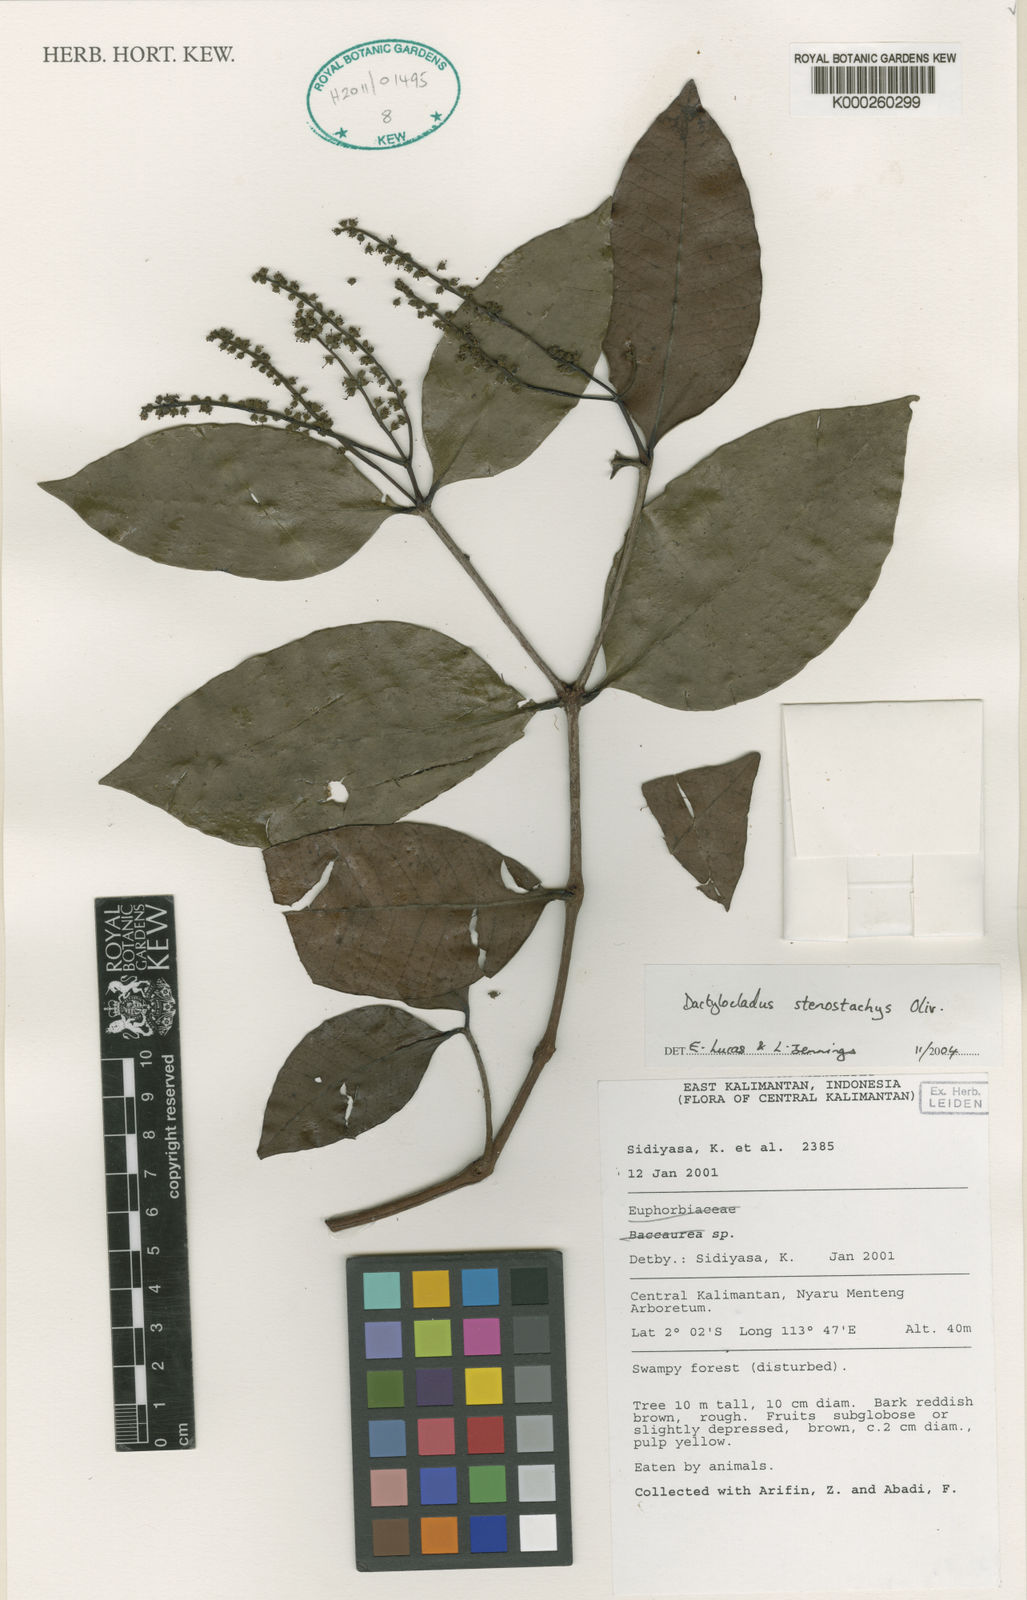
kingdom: Plantae
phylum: Tracheophyta
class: Magnoliopsida
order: Myrtales
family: Crypteroniaceae
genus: Dactylocladus
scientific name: Dactylocladus stenostachys
